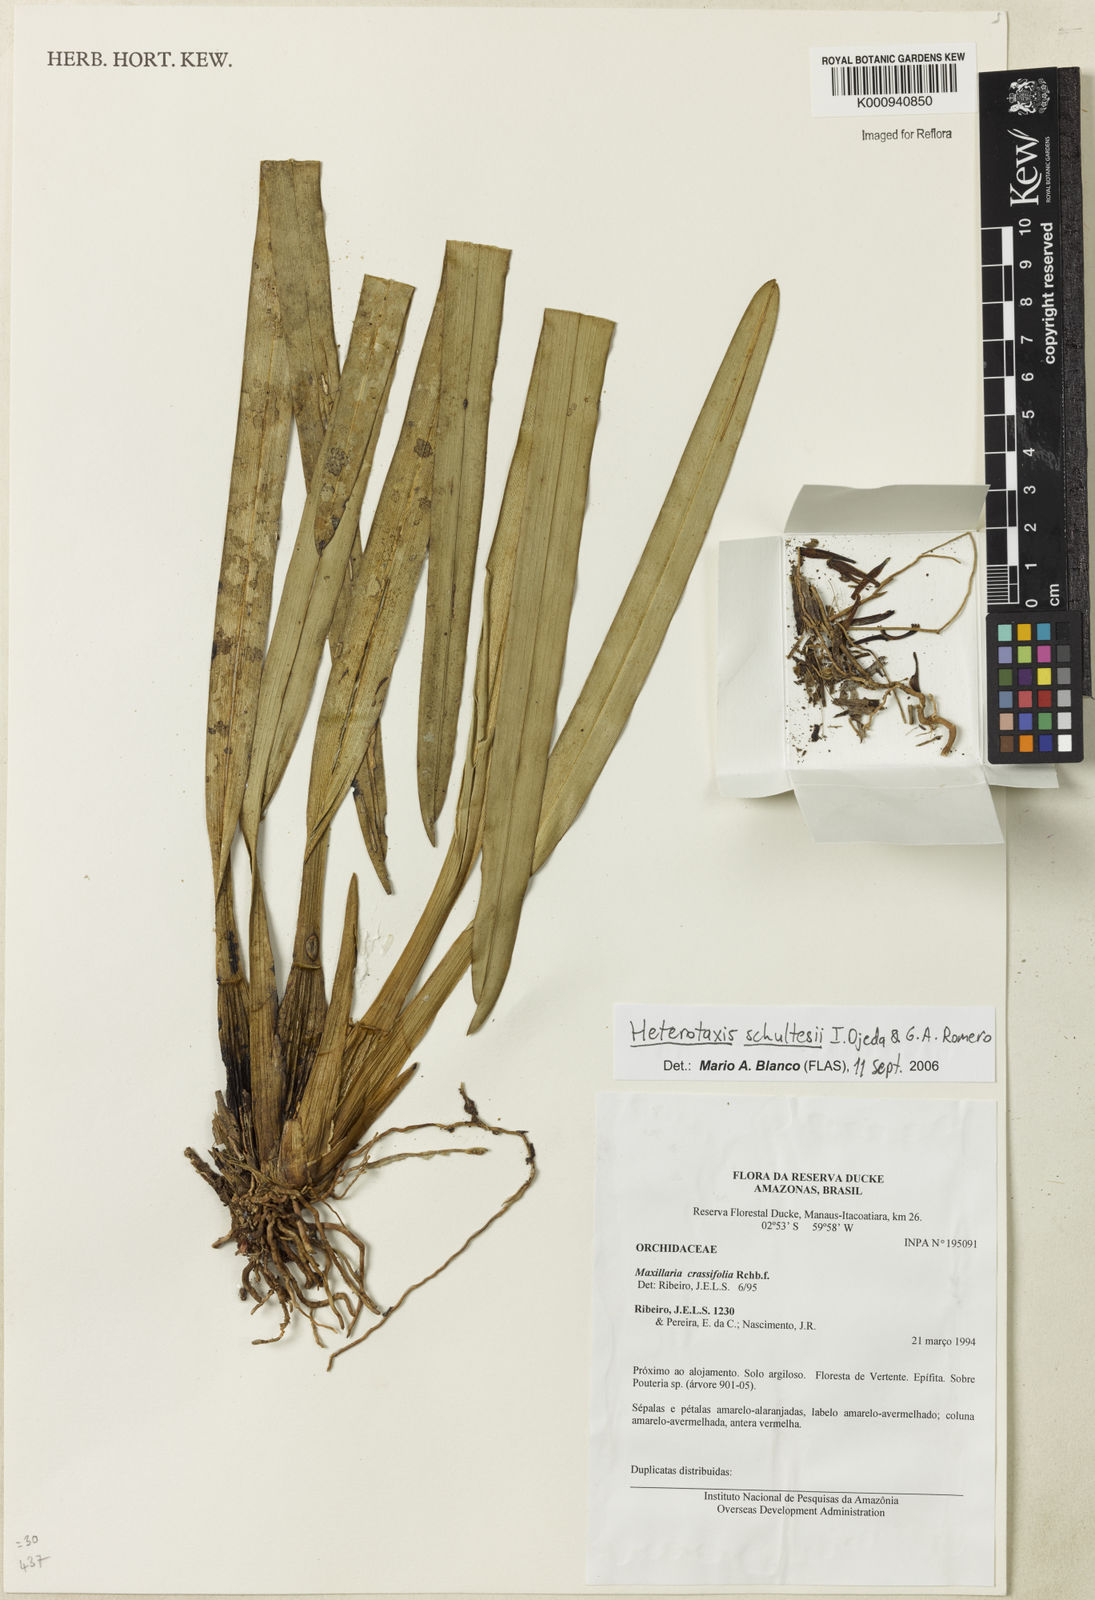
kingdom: Plantae
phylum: Tracheophyta
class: Liliopsida
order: Asparagales
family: Orchidaceae
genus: Maxillaria
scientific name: Maxillaria schultesii
